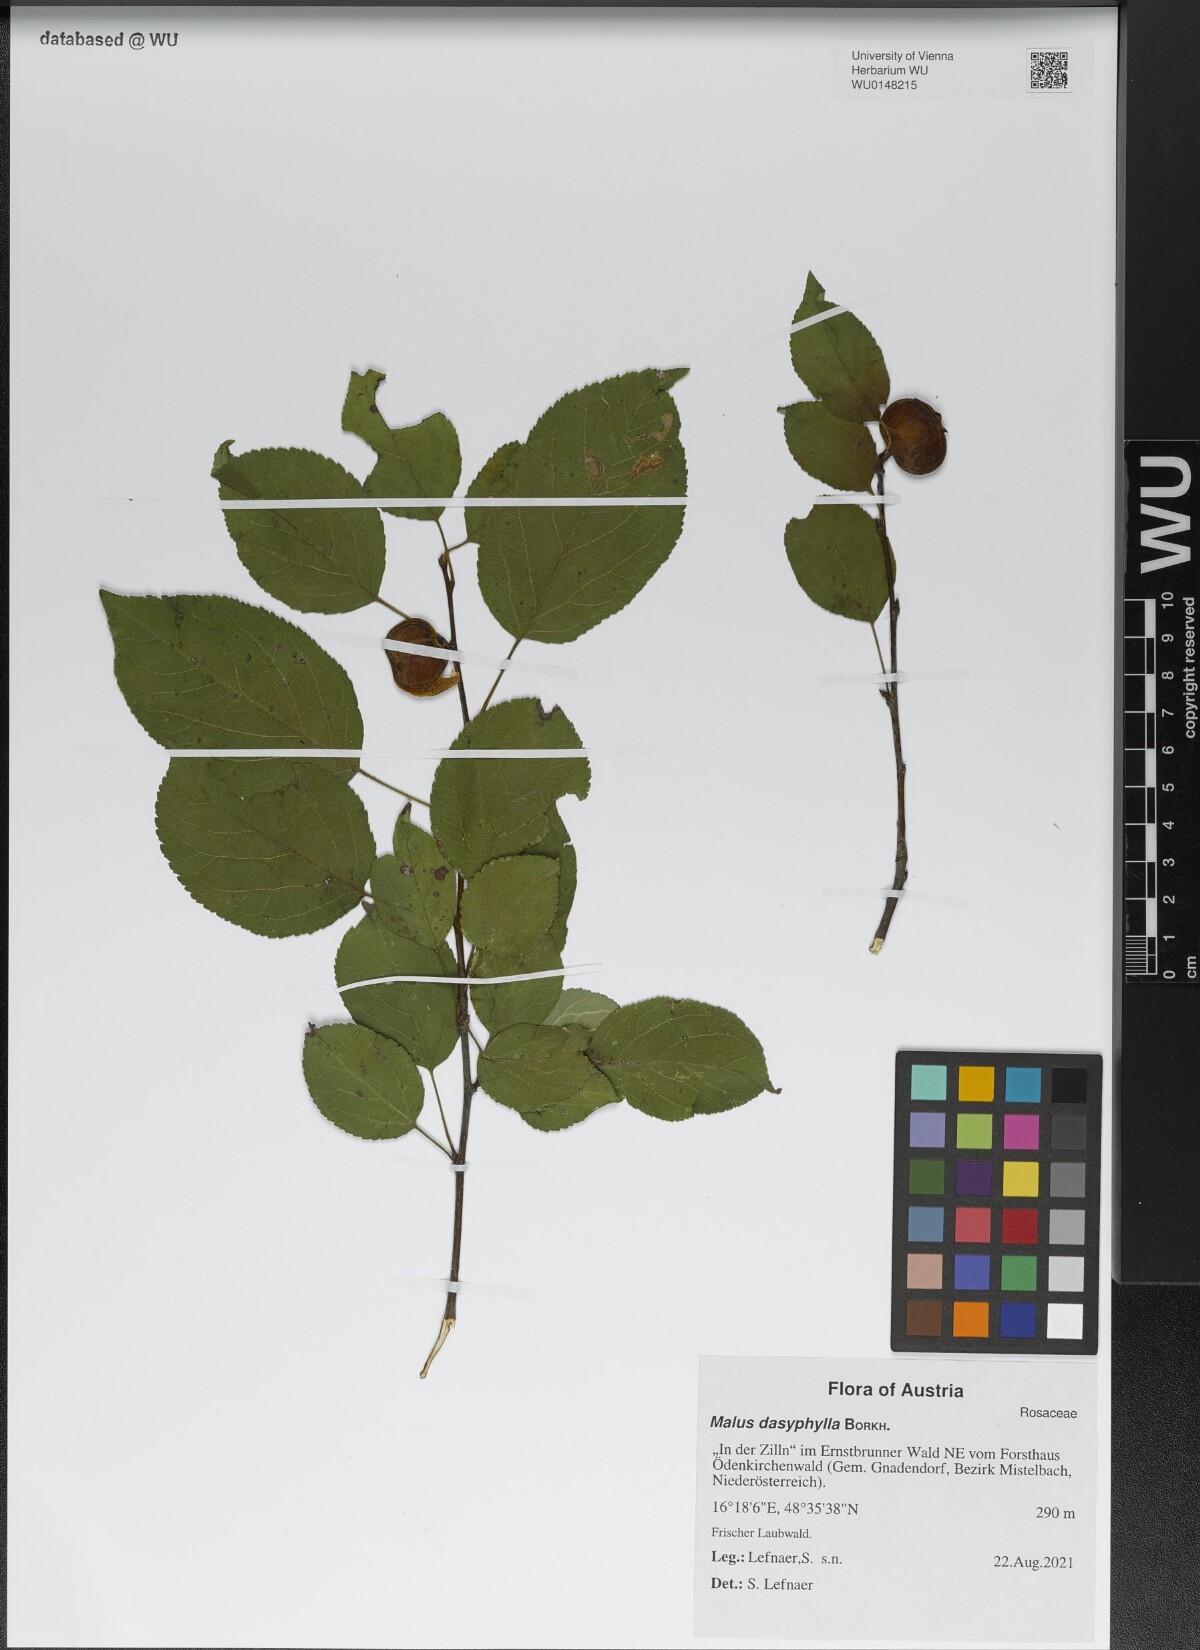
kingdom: Plantae
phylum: Tracheophyta
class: Magnoliopsida
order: Rosales
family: Rosaceae
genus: Malus
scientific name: Malus dasyphylla
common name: Paradise apple
